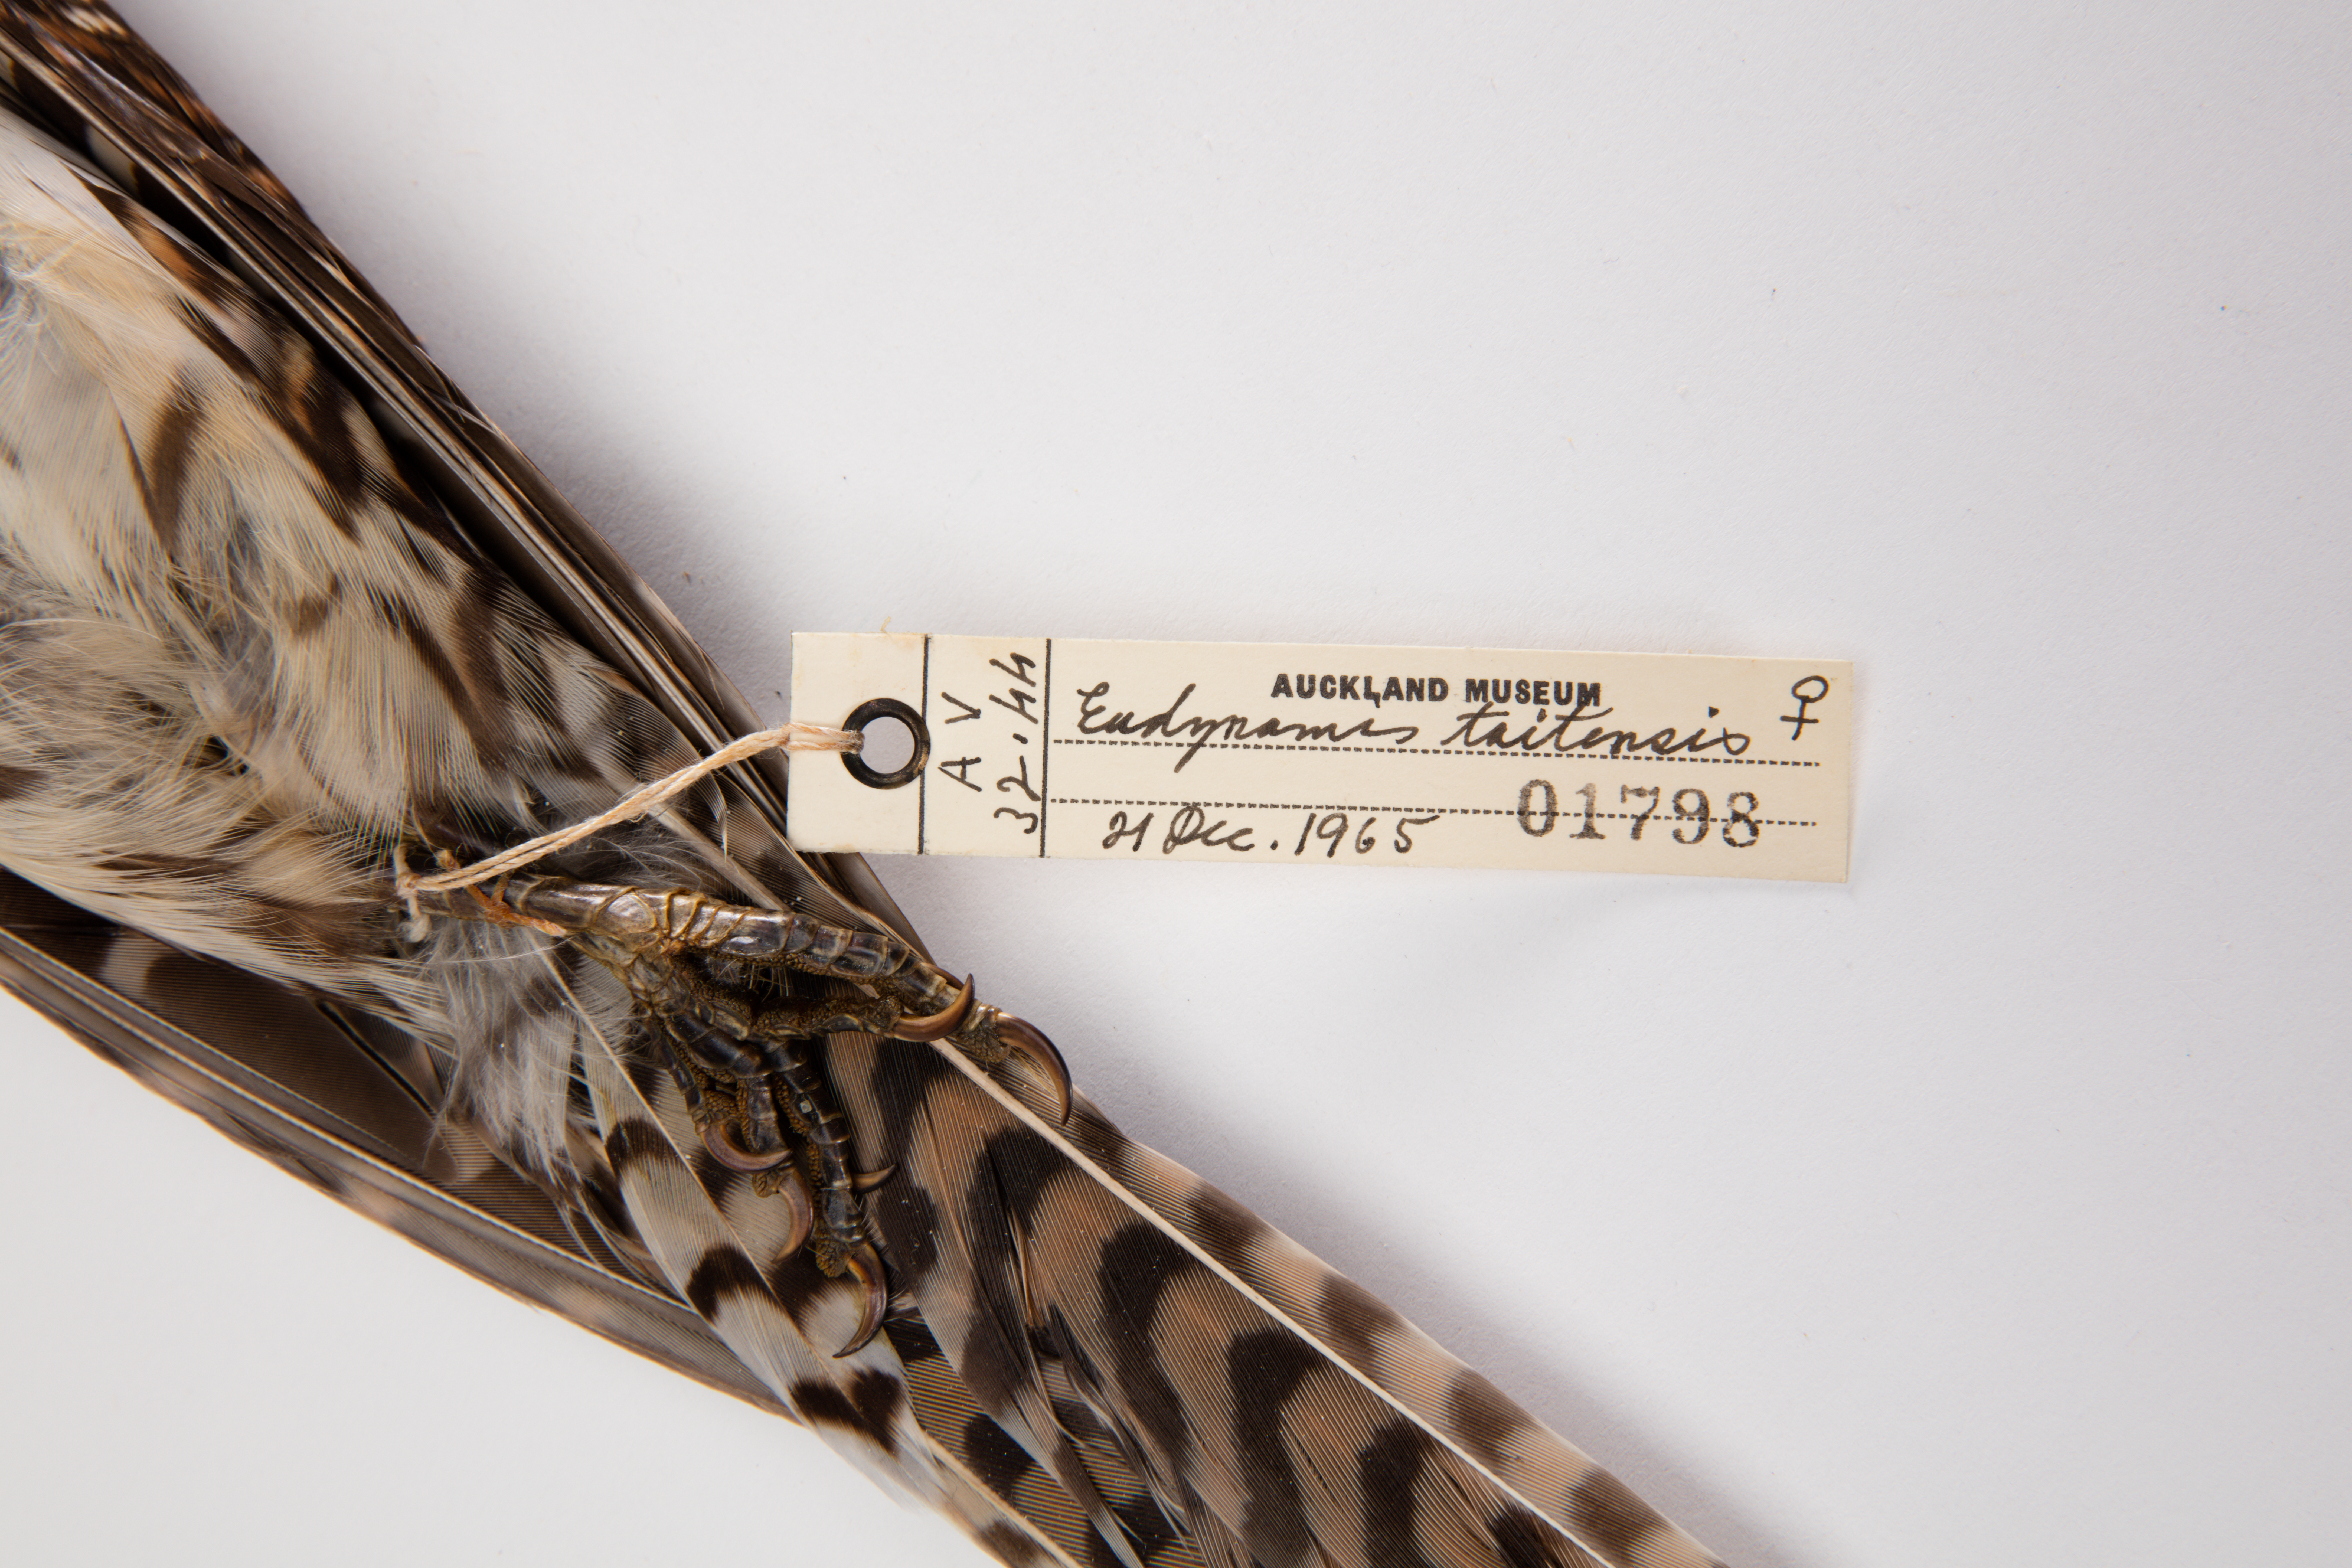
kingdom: Animalia
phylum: Chordata
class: Aves
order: Cuculiformes
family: Cuculidae
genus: Urodynamis
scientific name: Urodynamis taitensis
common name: Long-tailed koel
